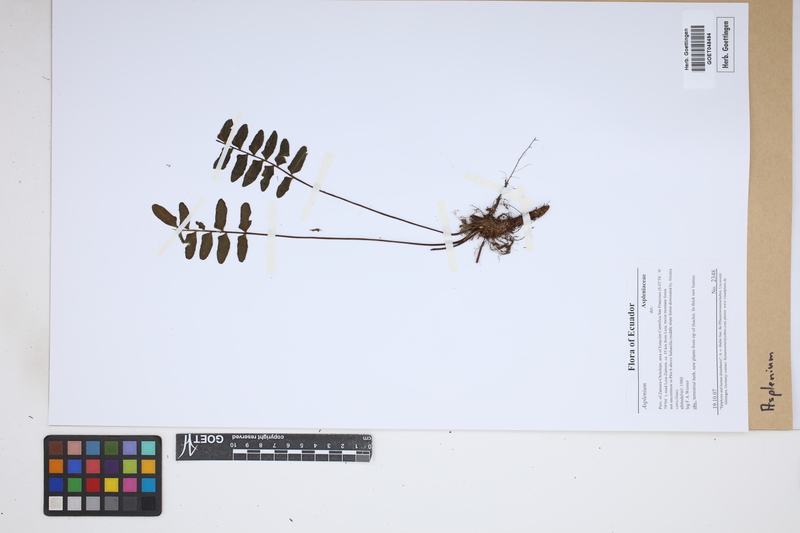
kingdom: Plantae
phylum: Tracheophyta
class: Polypodiopsida
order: Polypodiales
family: Aspleniaceae
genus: Asplenium
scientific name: Asplenium
